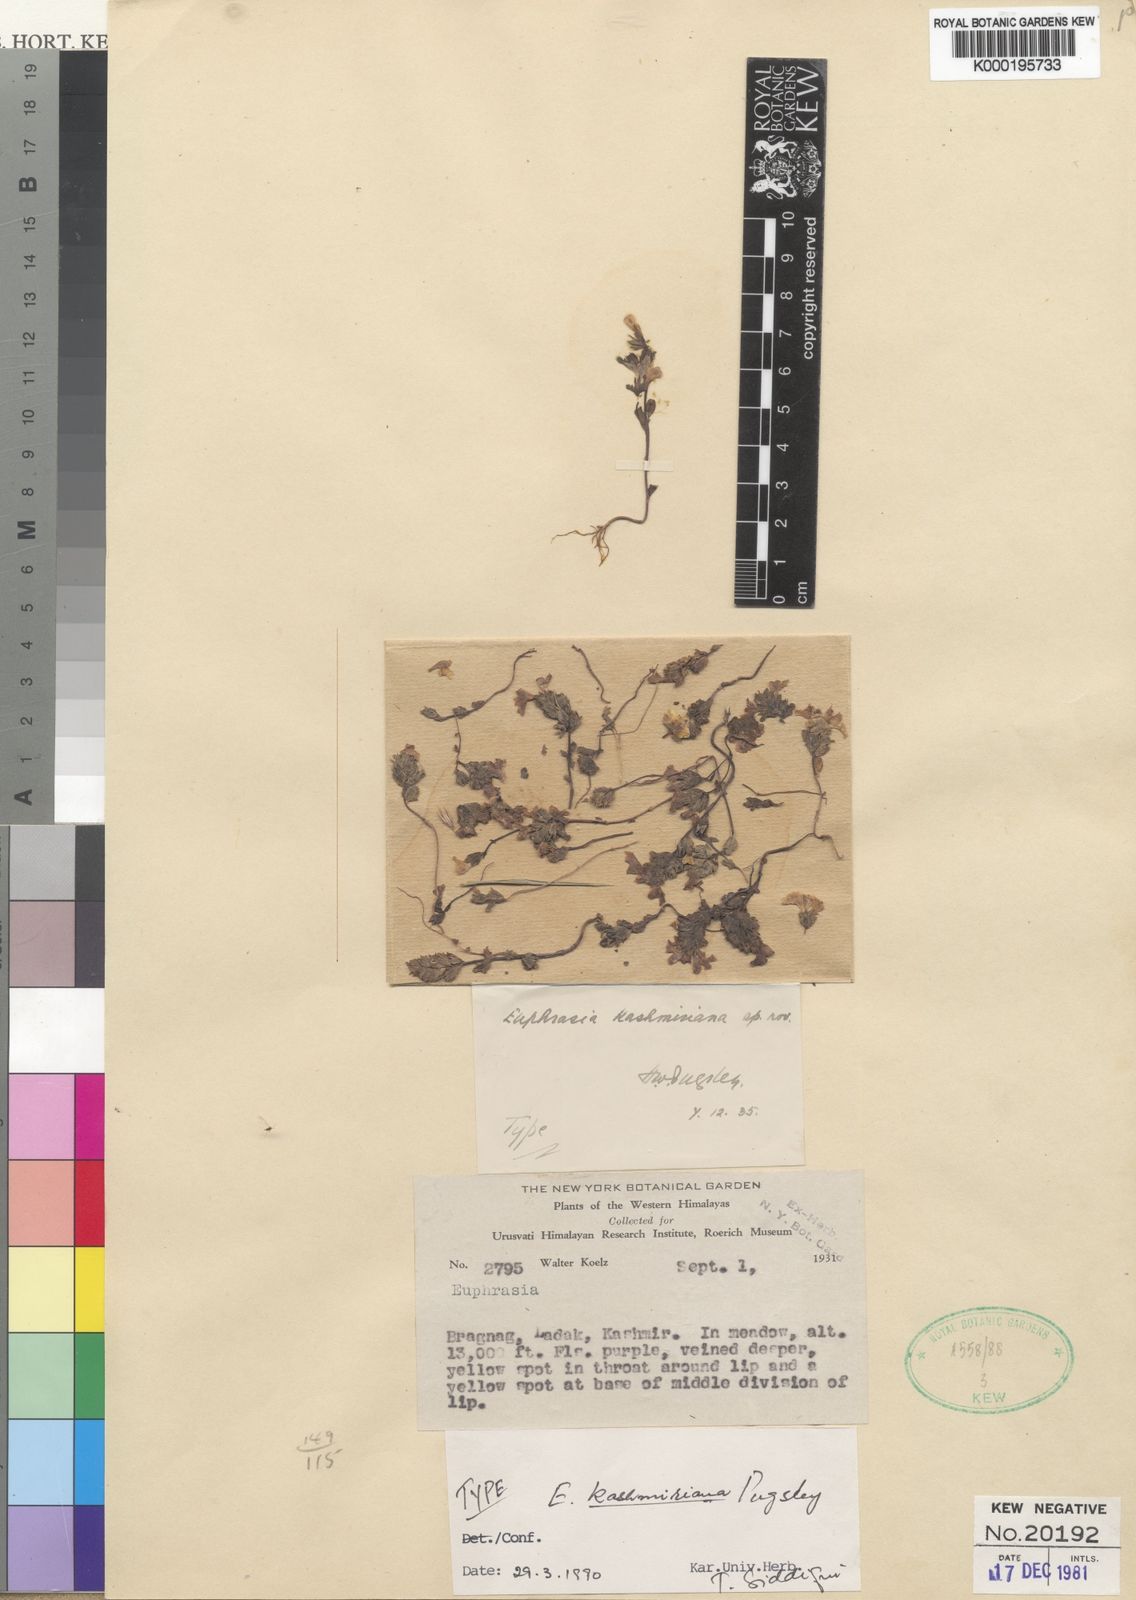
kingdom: Plantae
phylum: Tracheophyta
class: Magnoliopsida
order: Lamiales
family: Orobanchaceae
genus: Euphrasia
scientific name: Euphrasia kashmiriana
